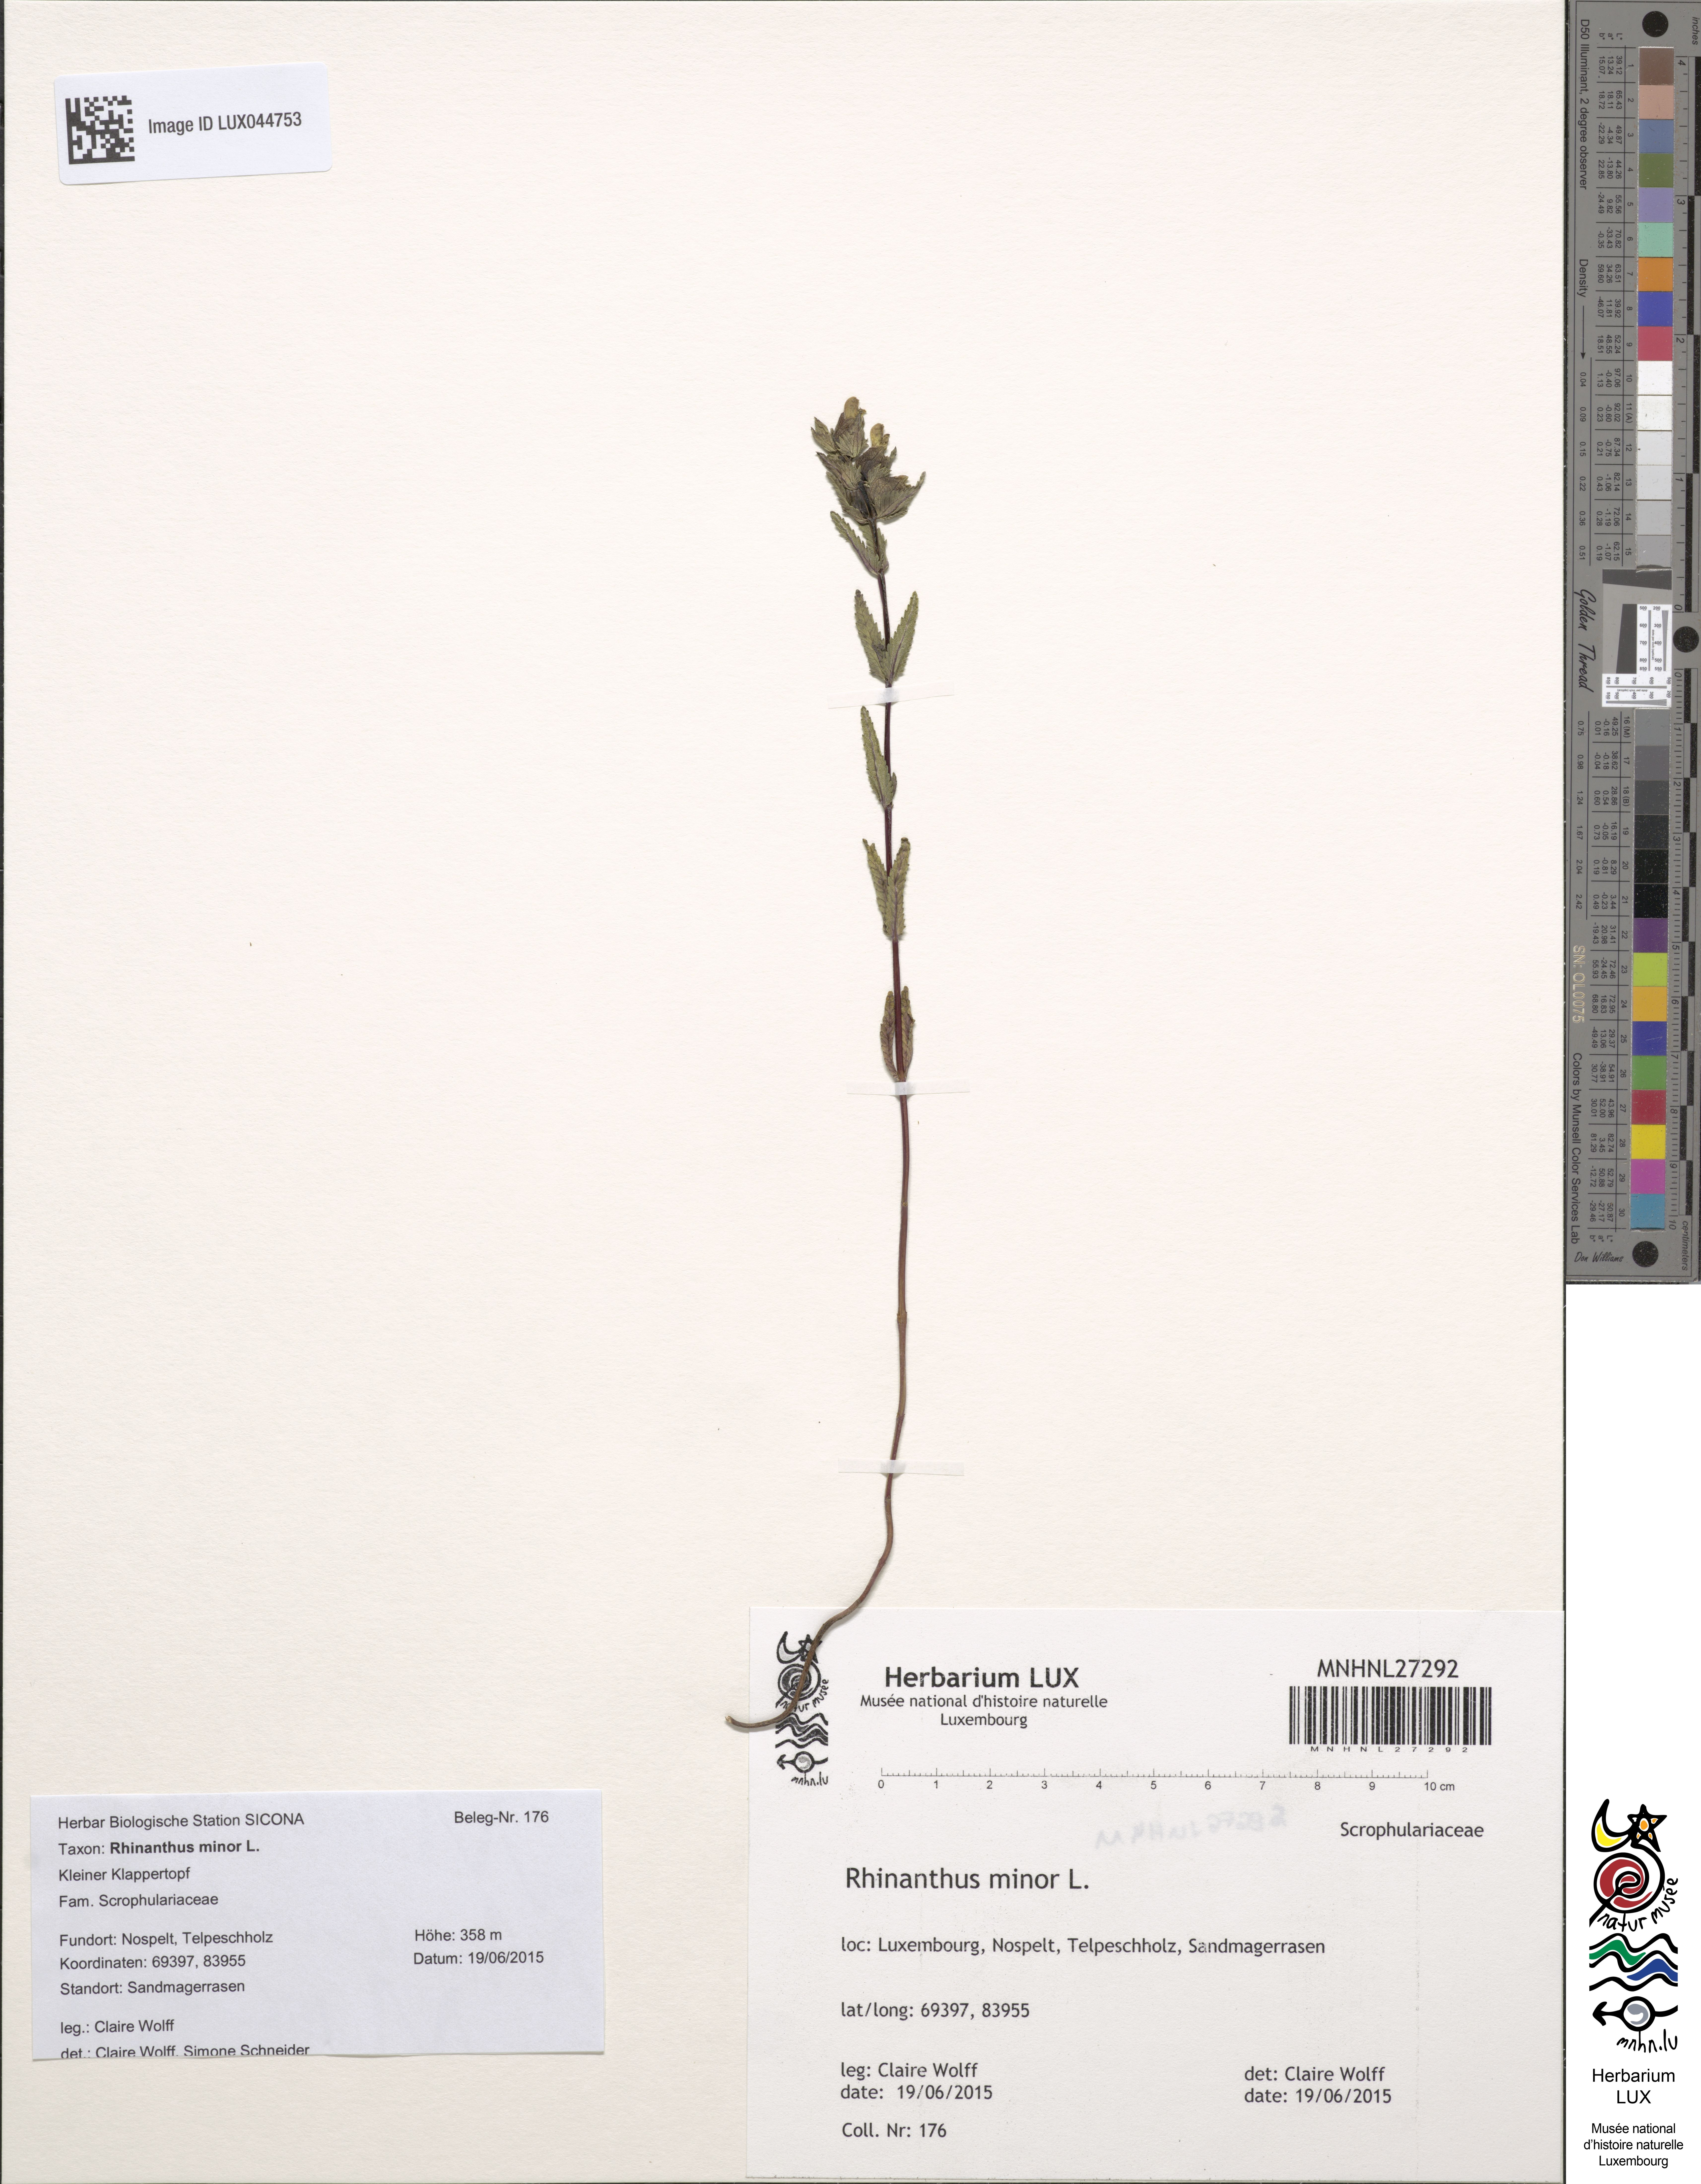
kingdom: Plantae
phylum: Tracheophyta
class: Magnoliopsida
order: Lamiales
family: Orobanchaceae
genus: Rhinanthus
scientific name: Rhinanthus minor
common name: Yellow-rattle
